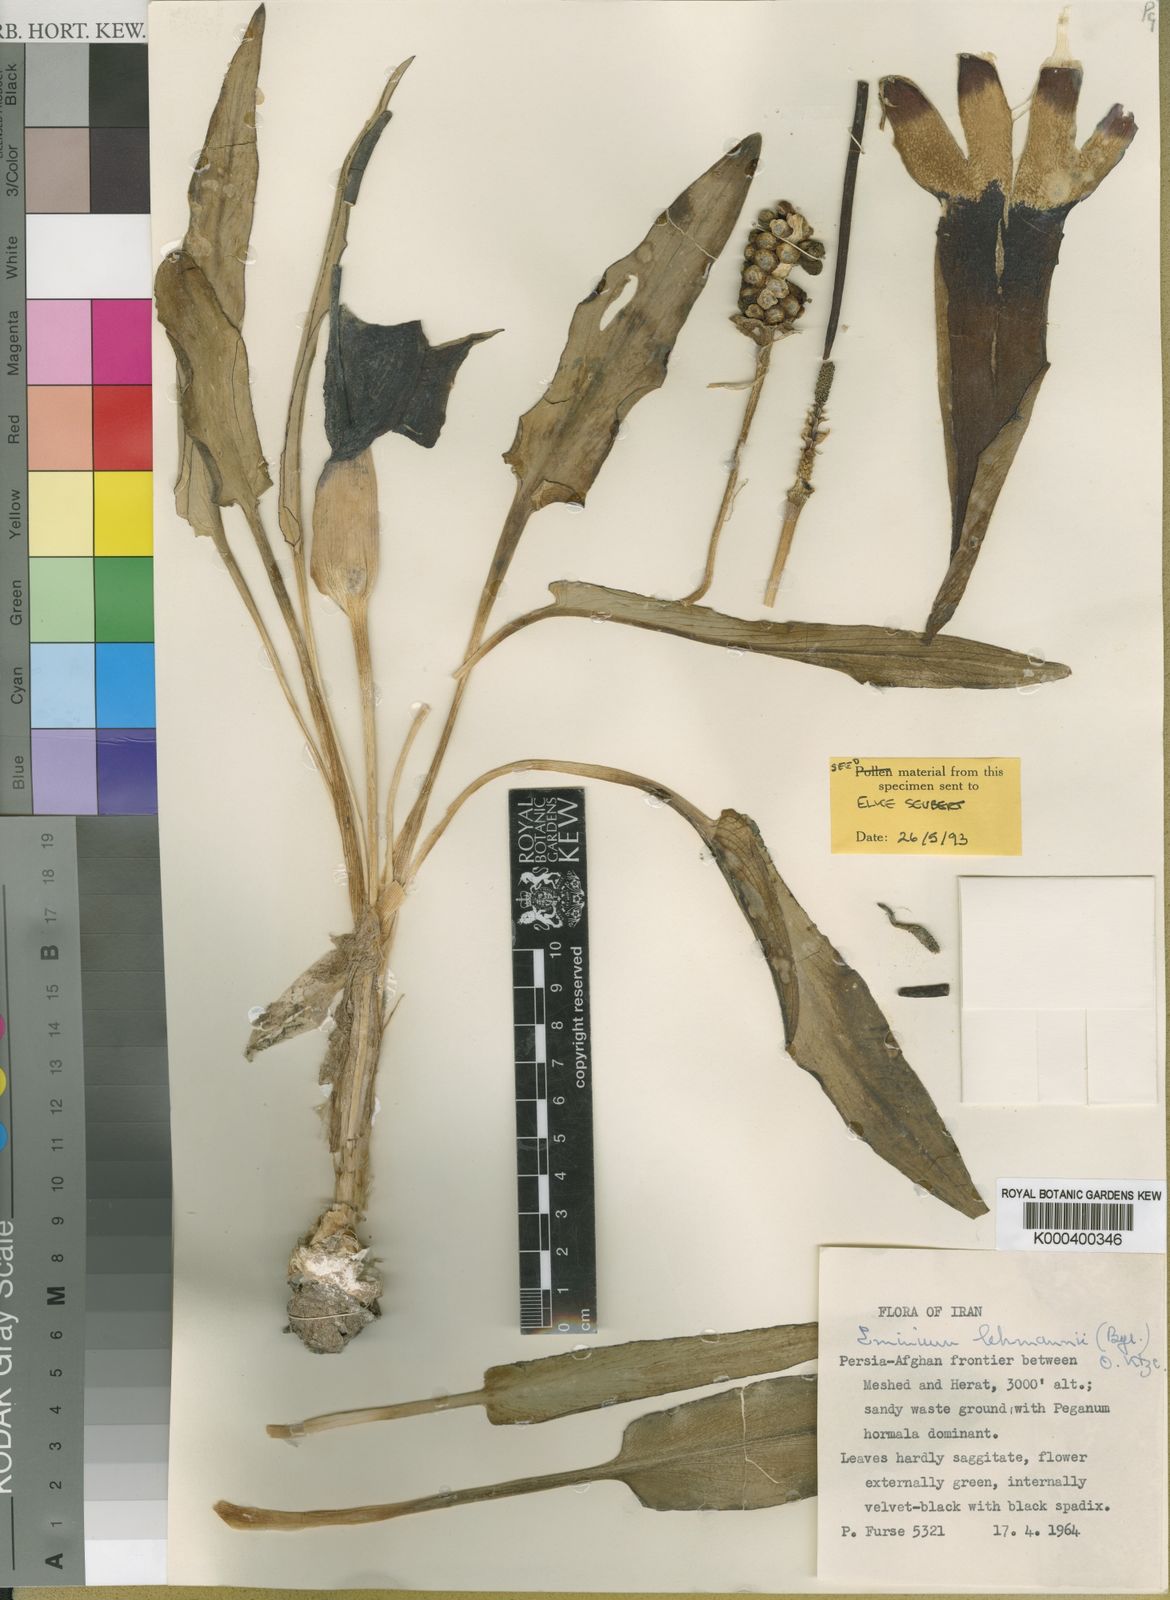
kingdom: Plantae
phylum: Tracheophyta
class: Liliopsida
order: Alismatales
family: Araceae
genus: Eminium
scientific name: Eminium lehmannii
